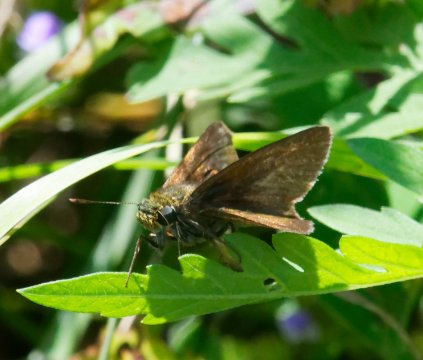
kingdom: Animalia
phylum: Arthropoda
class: Insecta
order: Lepidoptera
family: Hesperiidae
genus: Euphyes
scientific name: Euphyes vestris
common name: Dun Skipper
